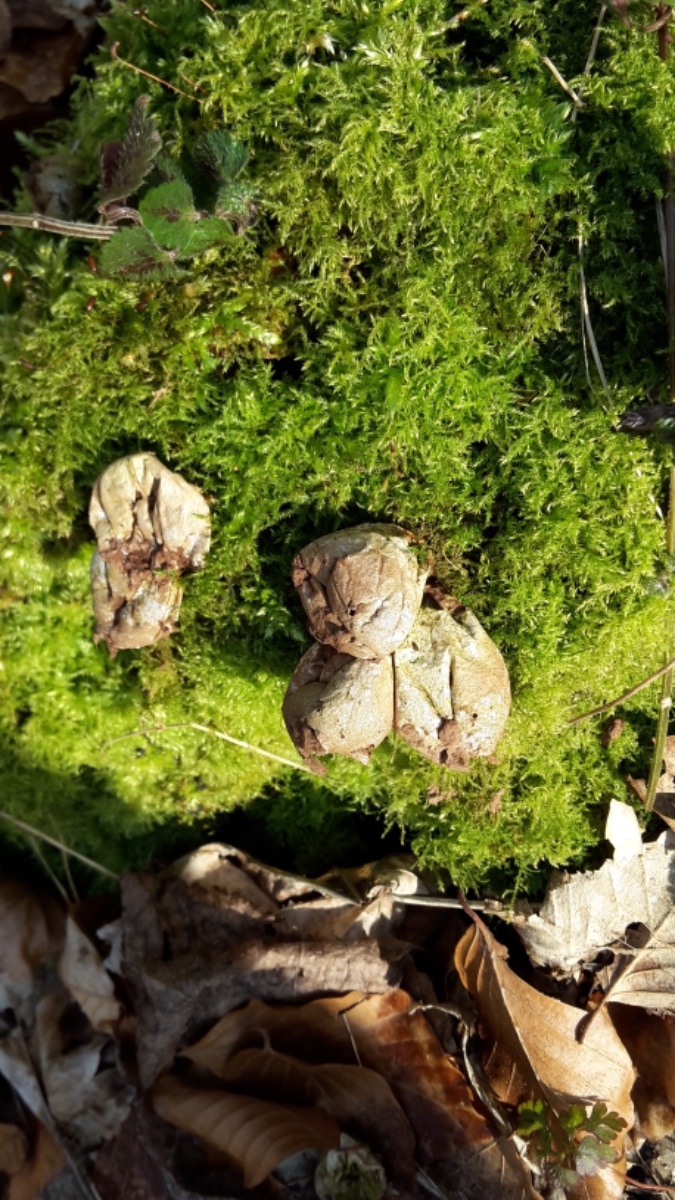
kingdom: Fungi
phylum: Basidiomycota
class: Agaricomycetes
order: Agaricales
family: Lycoperdaceae
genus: Apioperdon
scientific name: Apioperdon pyriforme
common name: pære-støvbold
